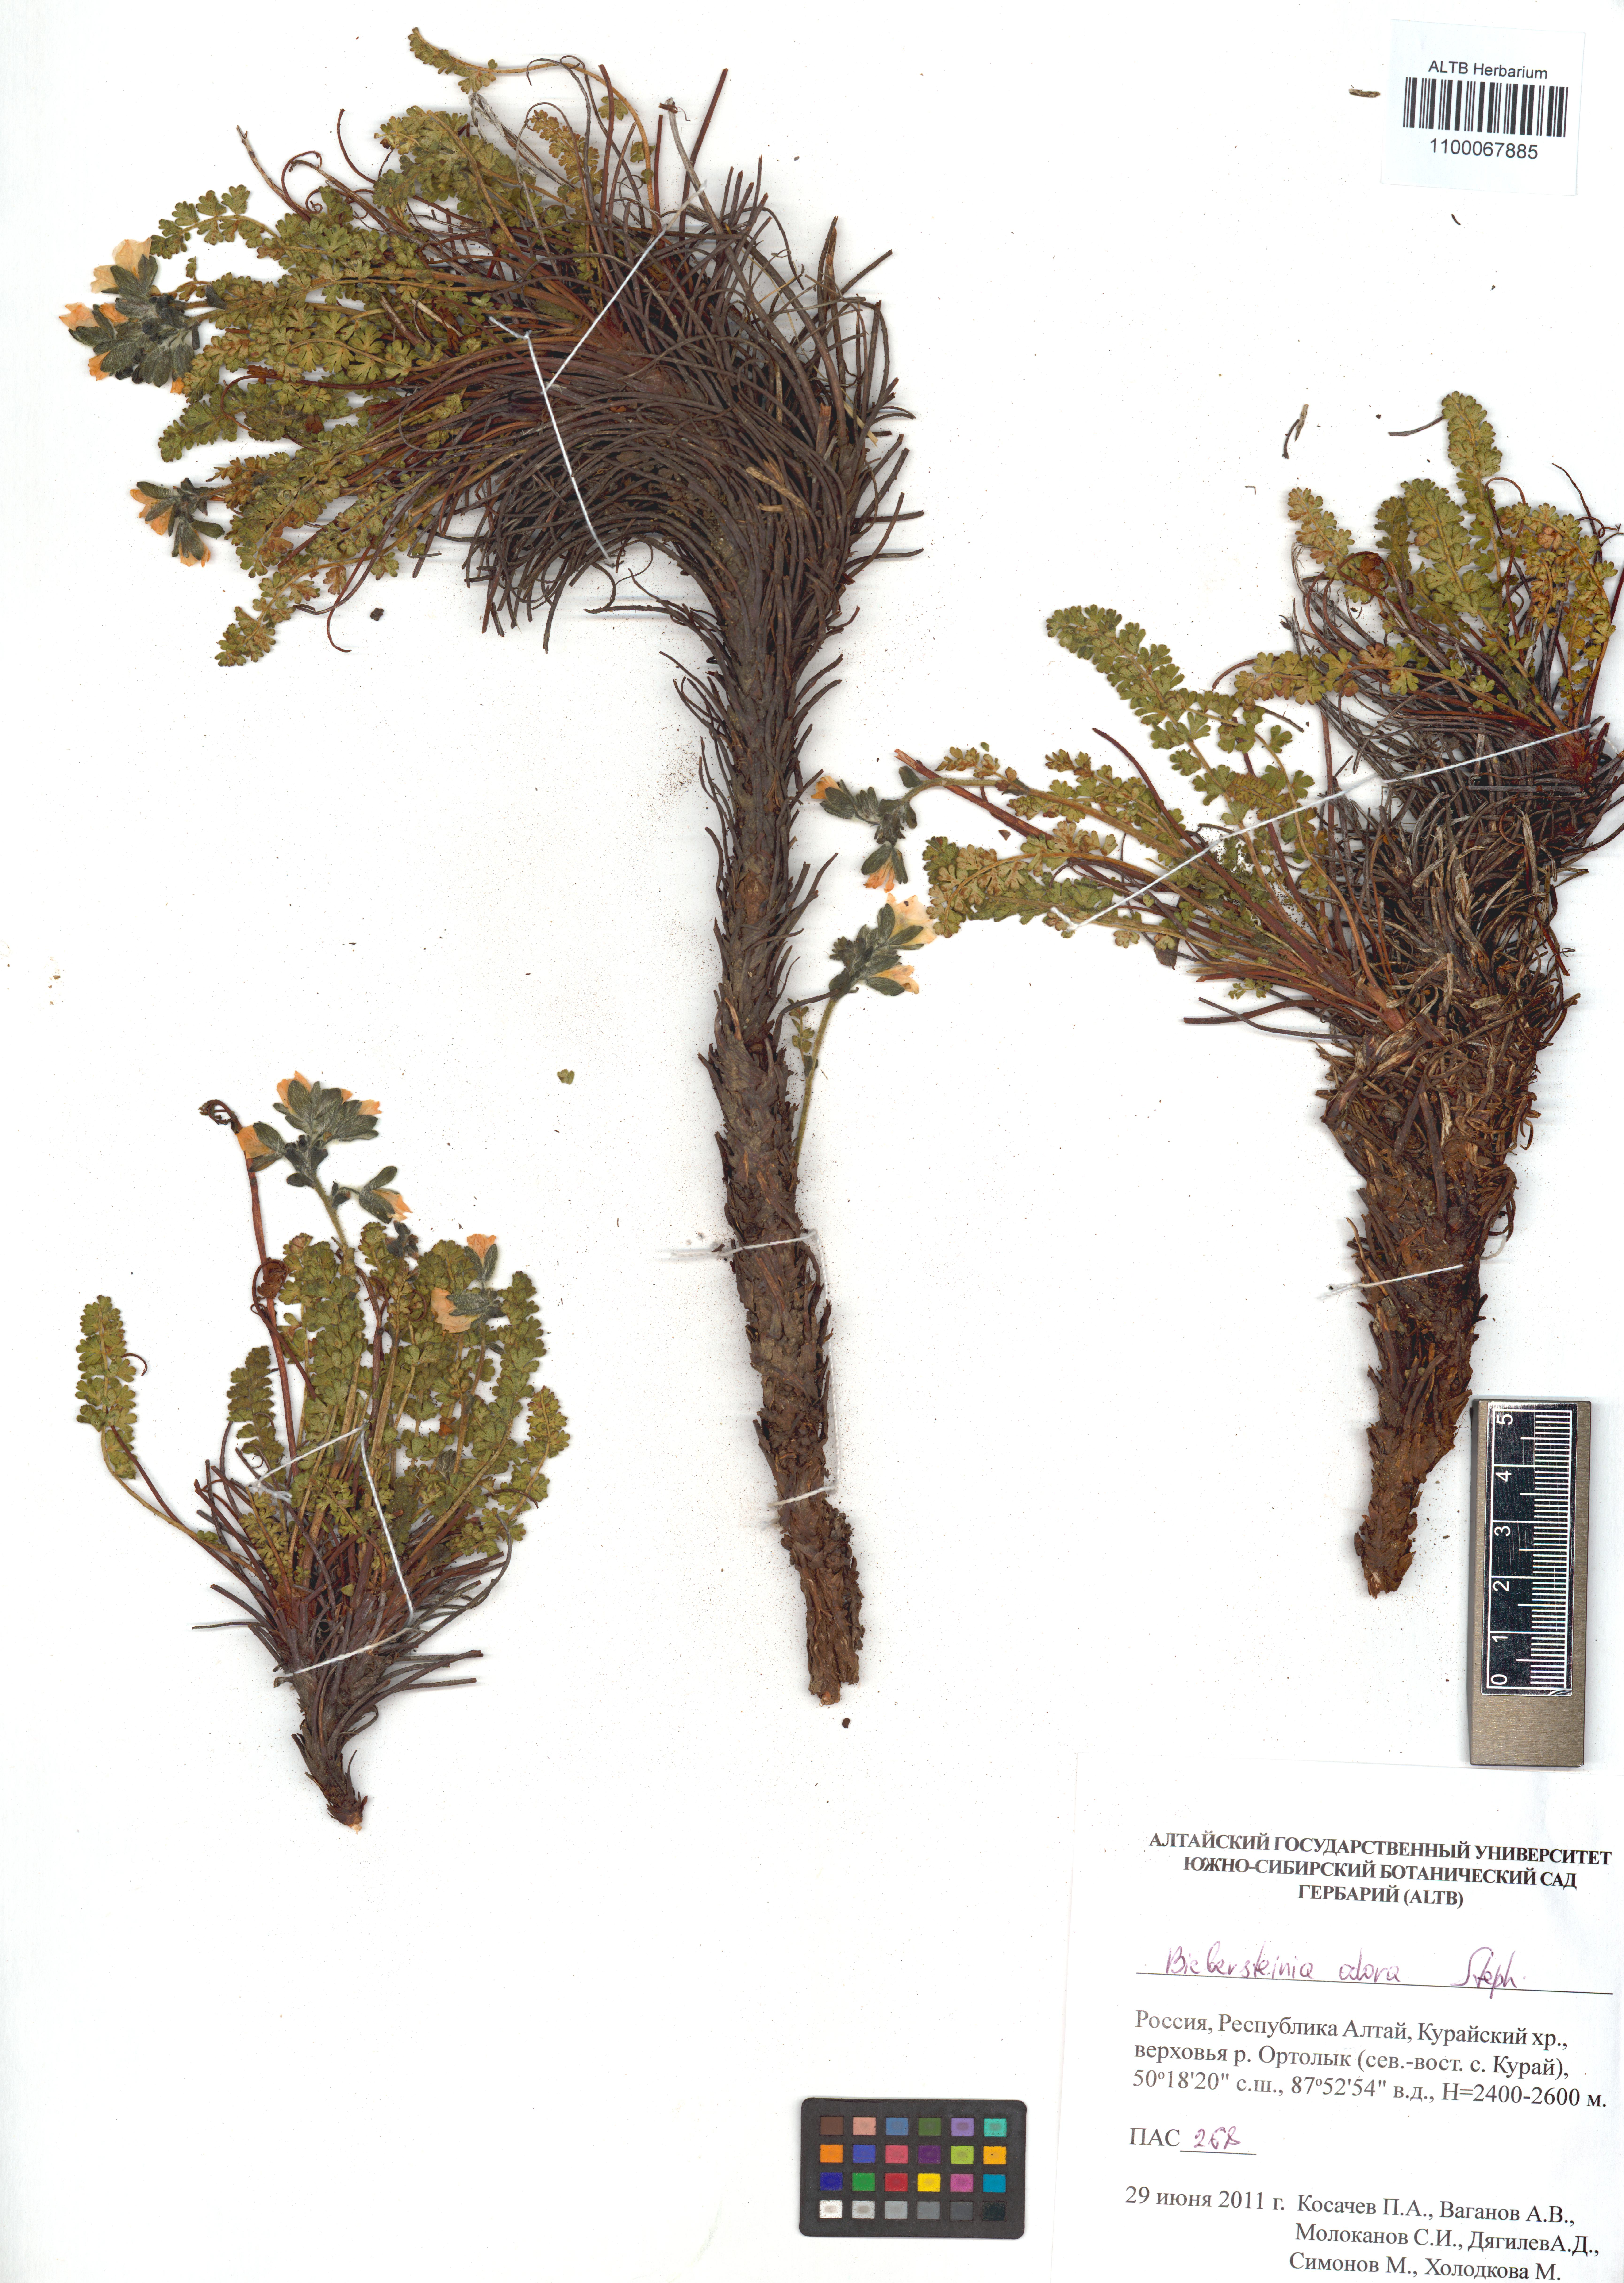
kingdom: Plantae
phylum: Tracheophyta
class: Magnoliopsida
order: Sapindales
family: Biebersteiniaceae
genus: Biebersteinia
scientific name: Biebersteinia odora
